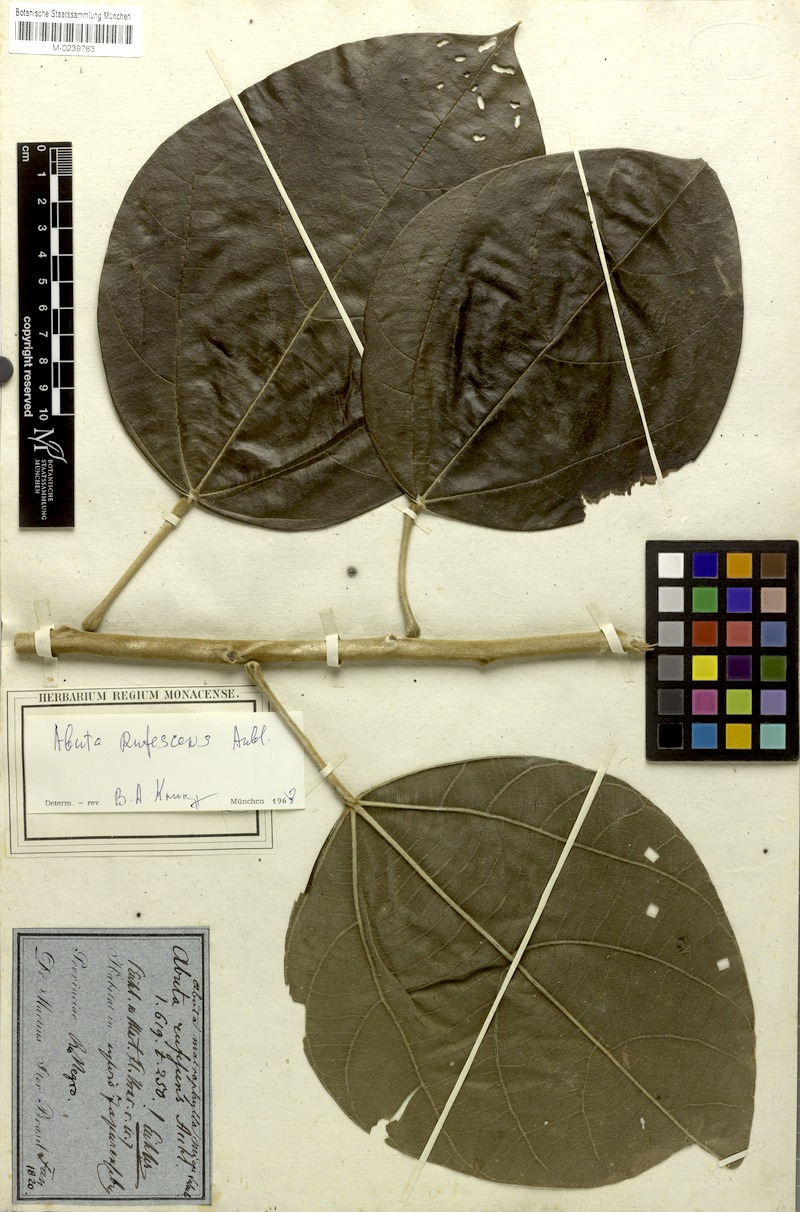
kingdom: Plantae
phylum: Tracheophyta
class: Magnoliopsida
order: Ranunculales
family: Menispermaceae
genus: Abuta
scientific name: Abuta rufescens
